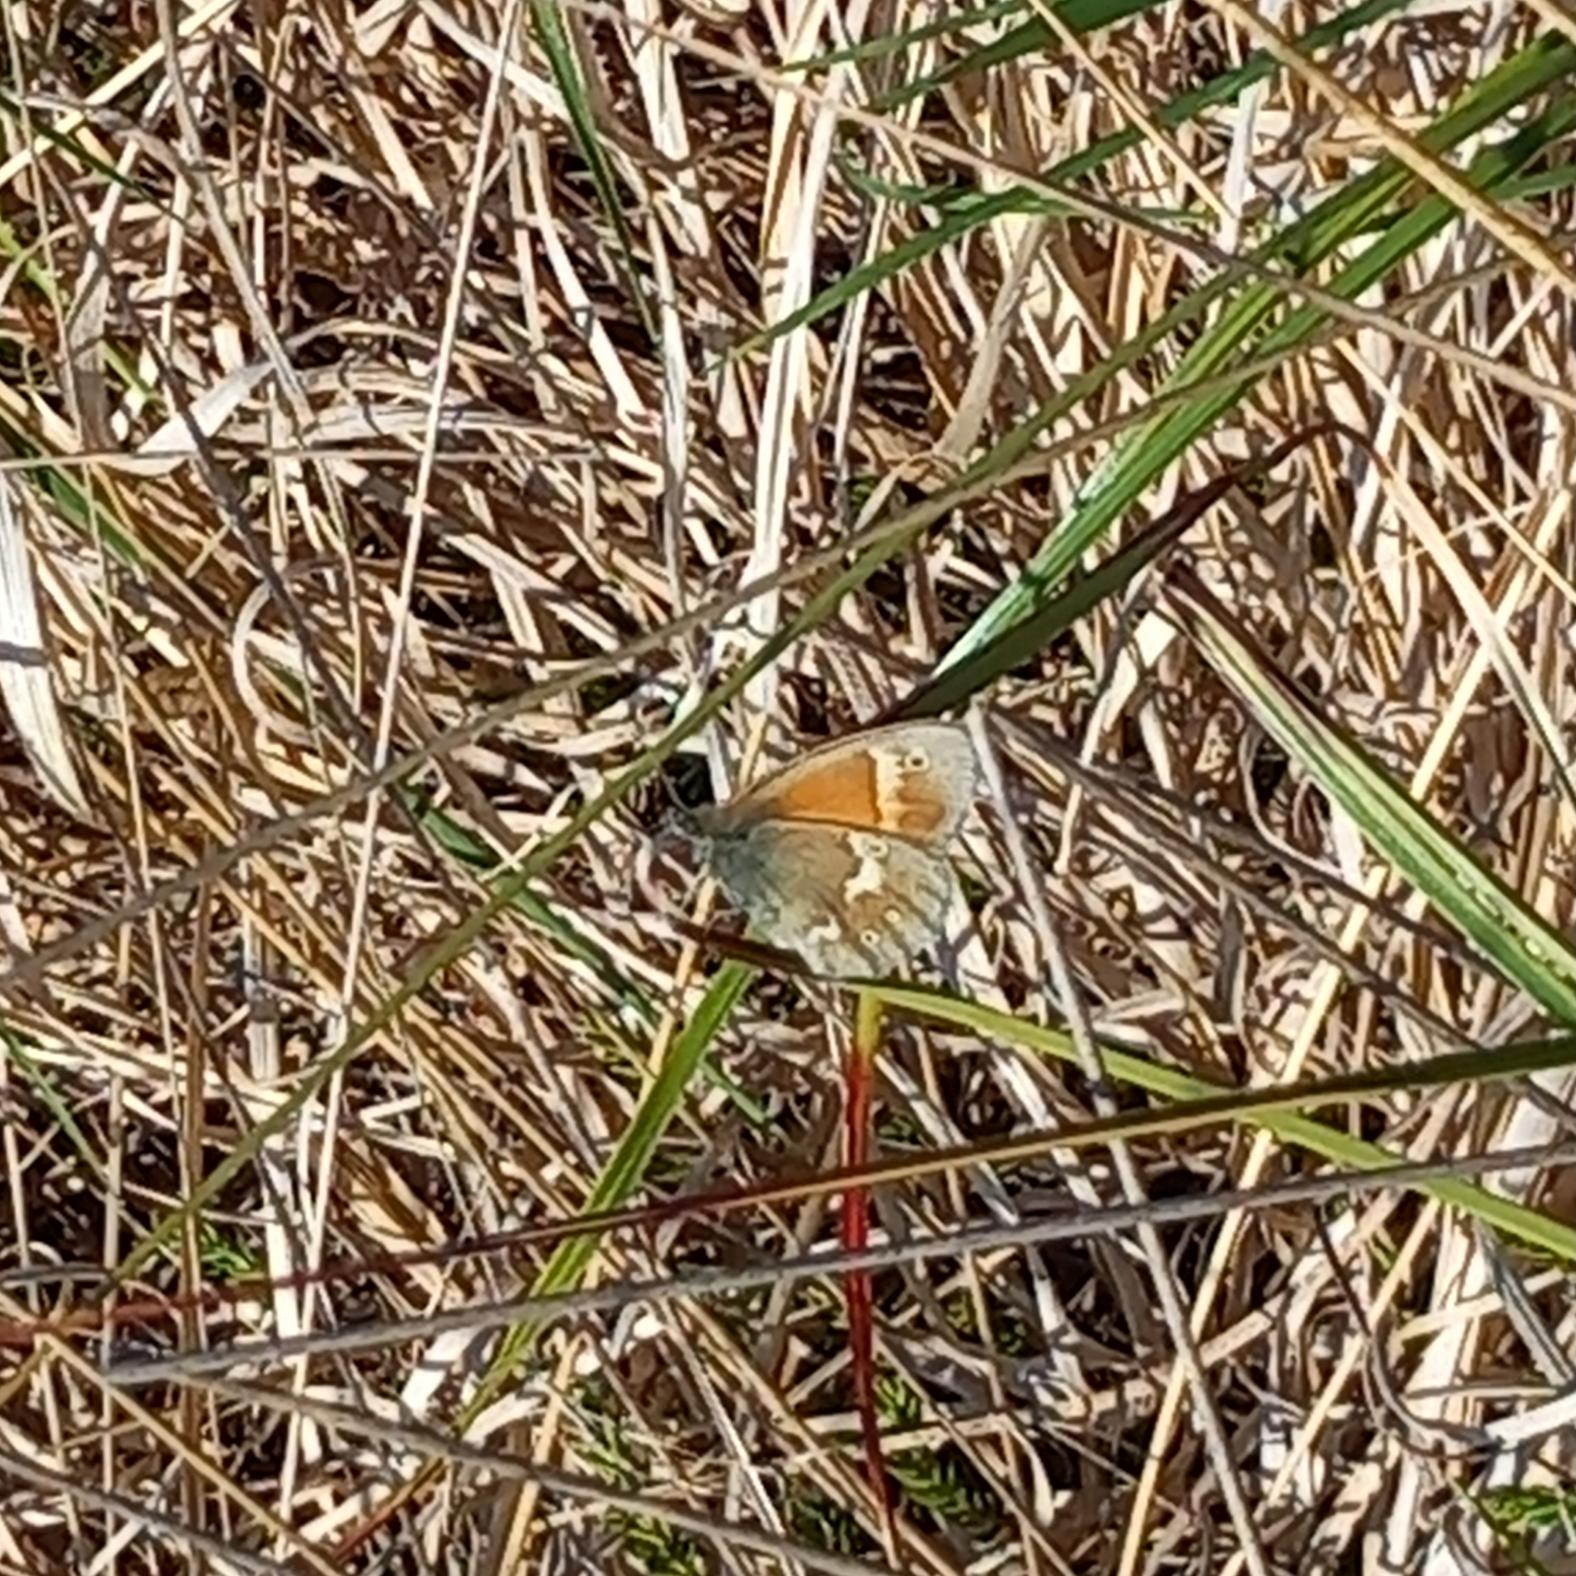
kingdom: Animalia
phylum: Arthropoda
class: Insecta
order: Lepidoptera
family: Nymphalidae
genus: Coenonympha
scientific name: Coenonympha tullia
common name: Moserandøje
